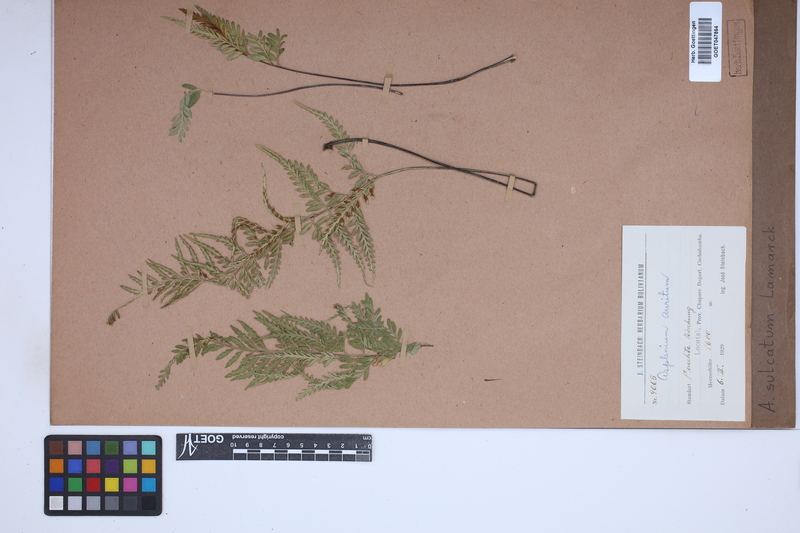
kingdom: Plantae
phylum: Tracheophyta
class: Polypodiopsida
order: Polypodiales
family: Aspleniaceae
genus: Asplenium
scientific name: Asplenium sulcatum
